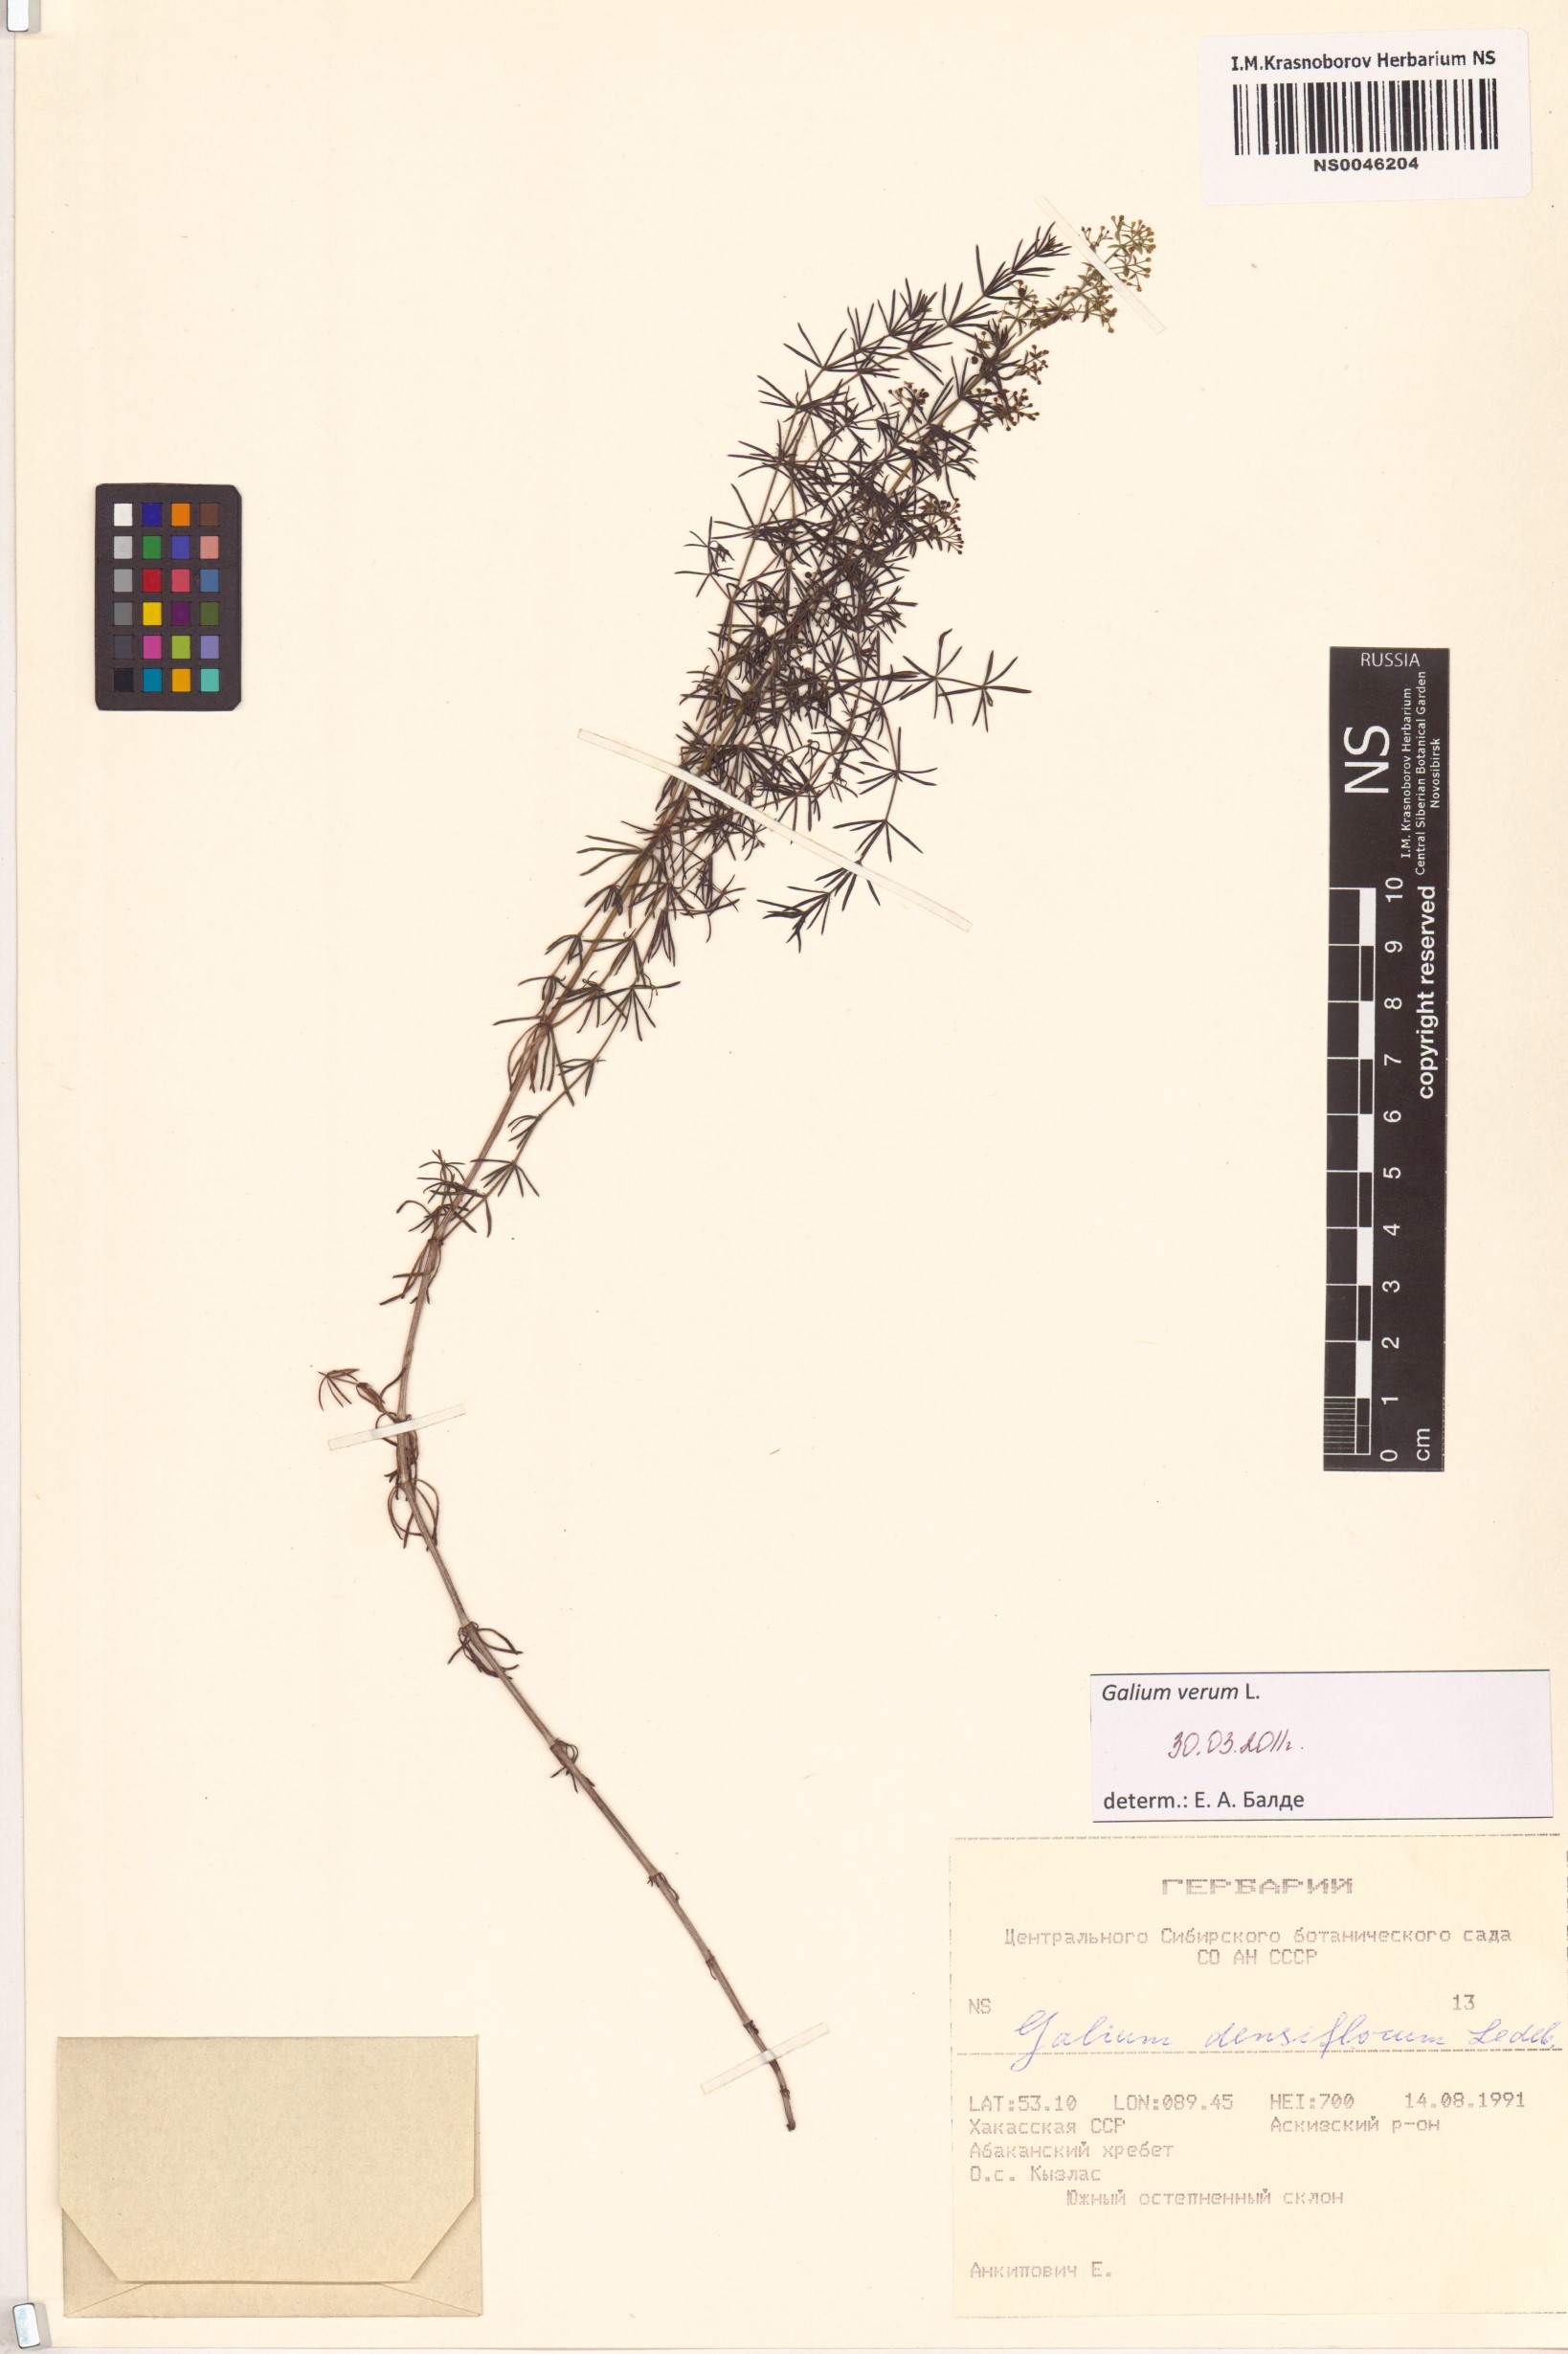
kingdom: Plantae
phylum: Tracheophyta
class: Magnoliopsida
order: Gentianales
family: Rubiaceae
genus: Galium
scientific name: Galium verum
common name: Lady's bedstraw
